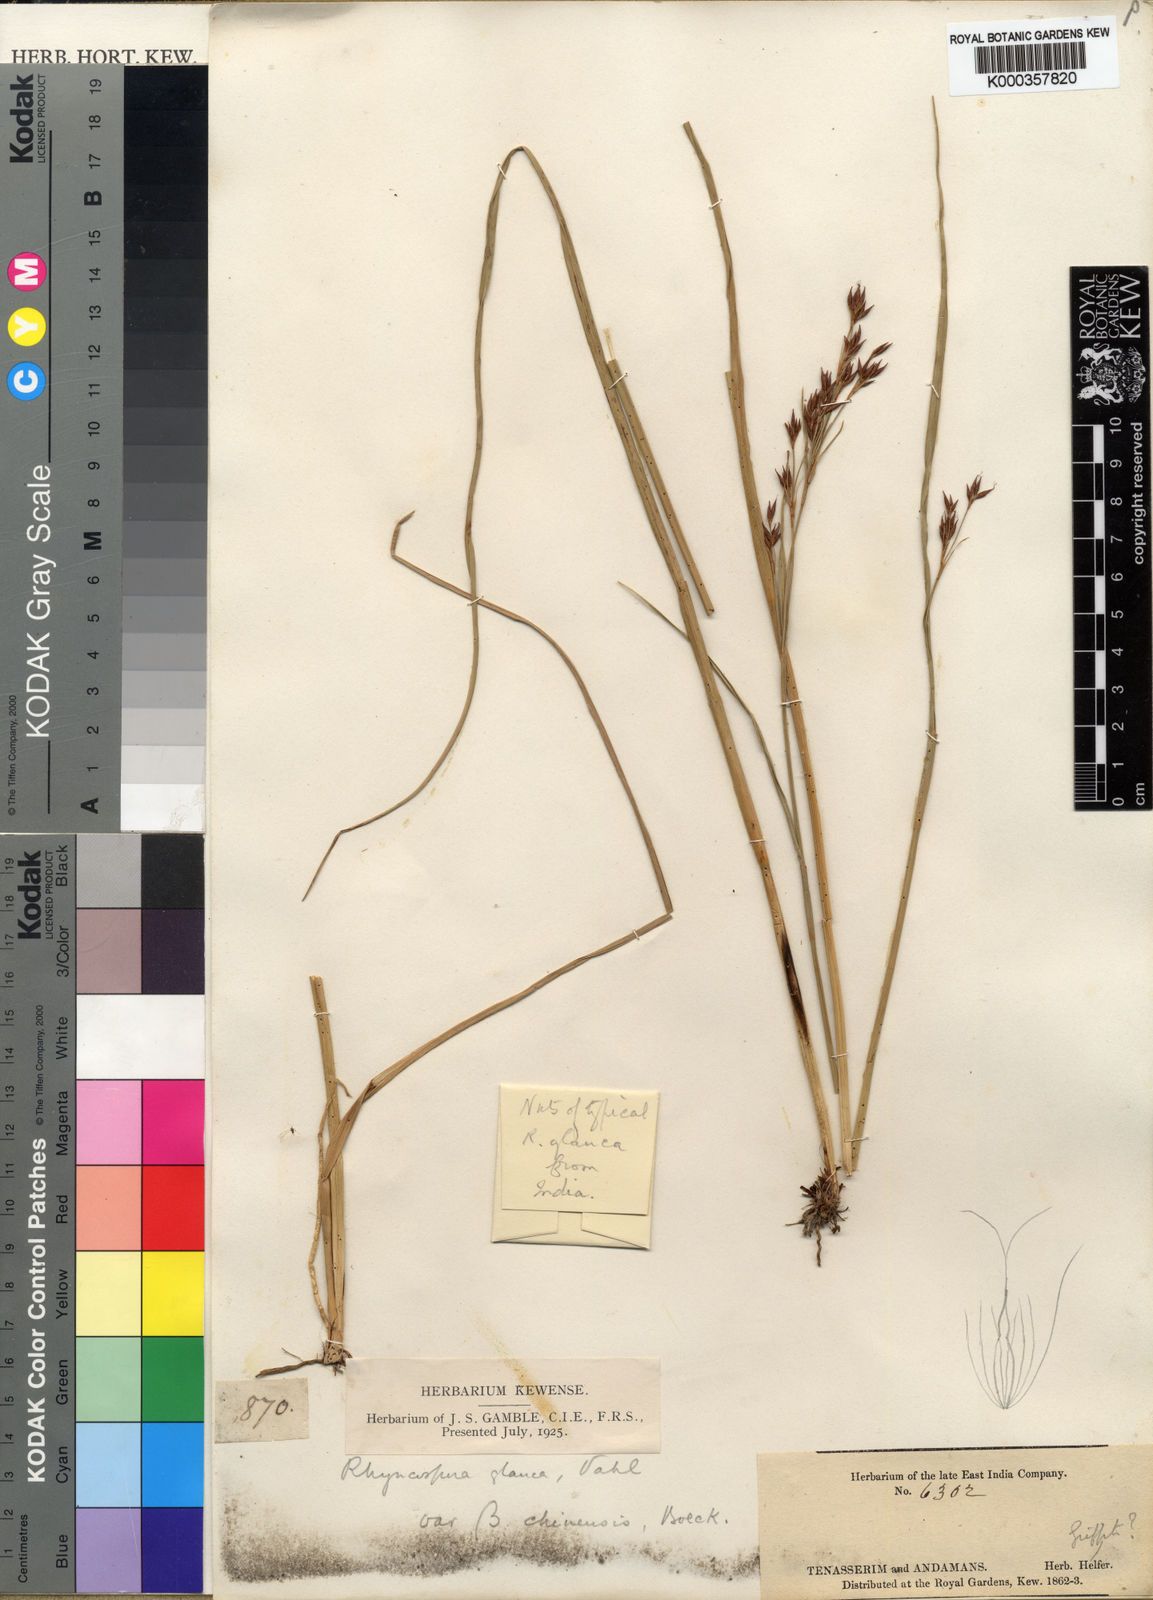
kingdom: Plantae
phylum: Tracheophyta
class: Liliopsida
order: Poales
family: Cyperaceae
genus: Rhynchospora
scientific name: Rhynchospora rugosa
